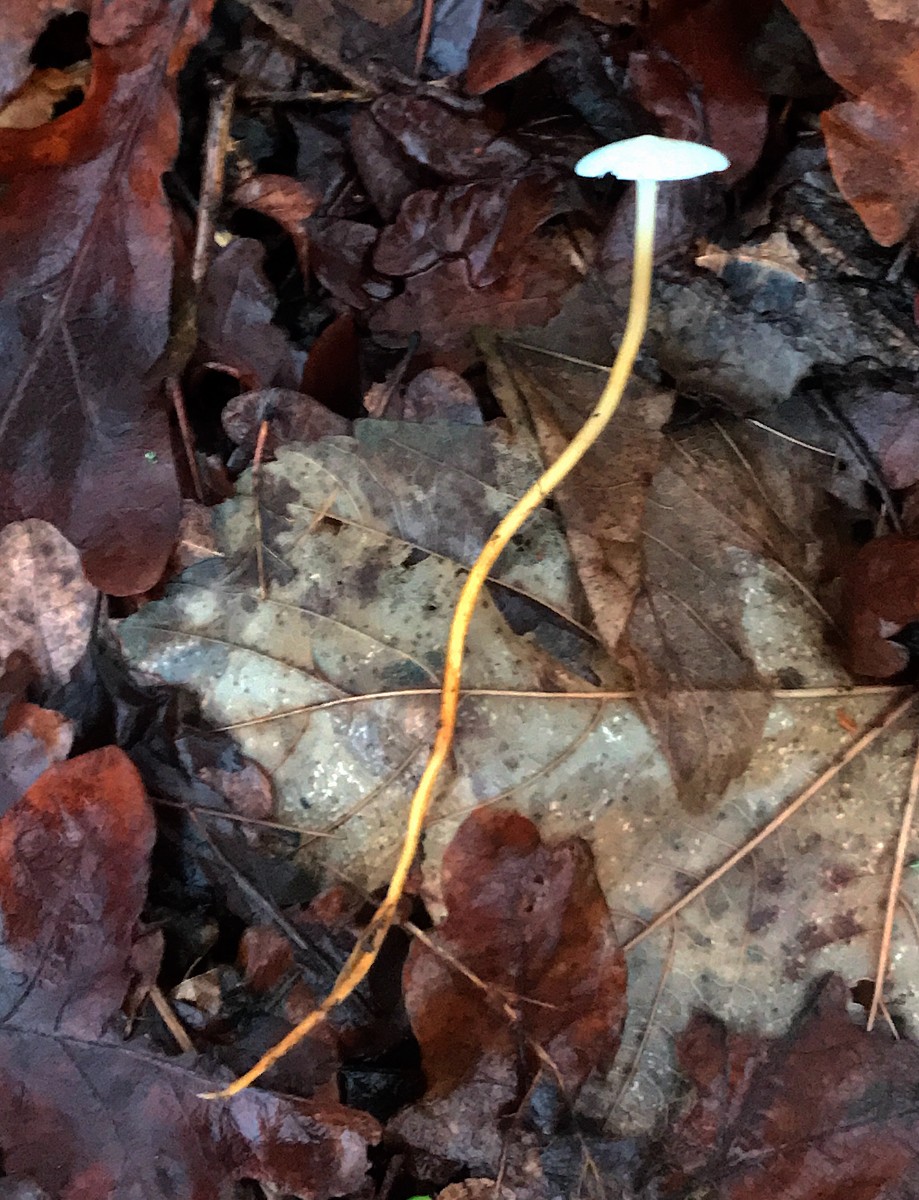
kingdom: Fungi
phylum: Basidiomycota
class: Agaricomycetes
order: Agaricales
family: Physalacriaceae
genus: Strobilurus
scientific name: Strobilurus esculentus
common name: gran-koglehat
